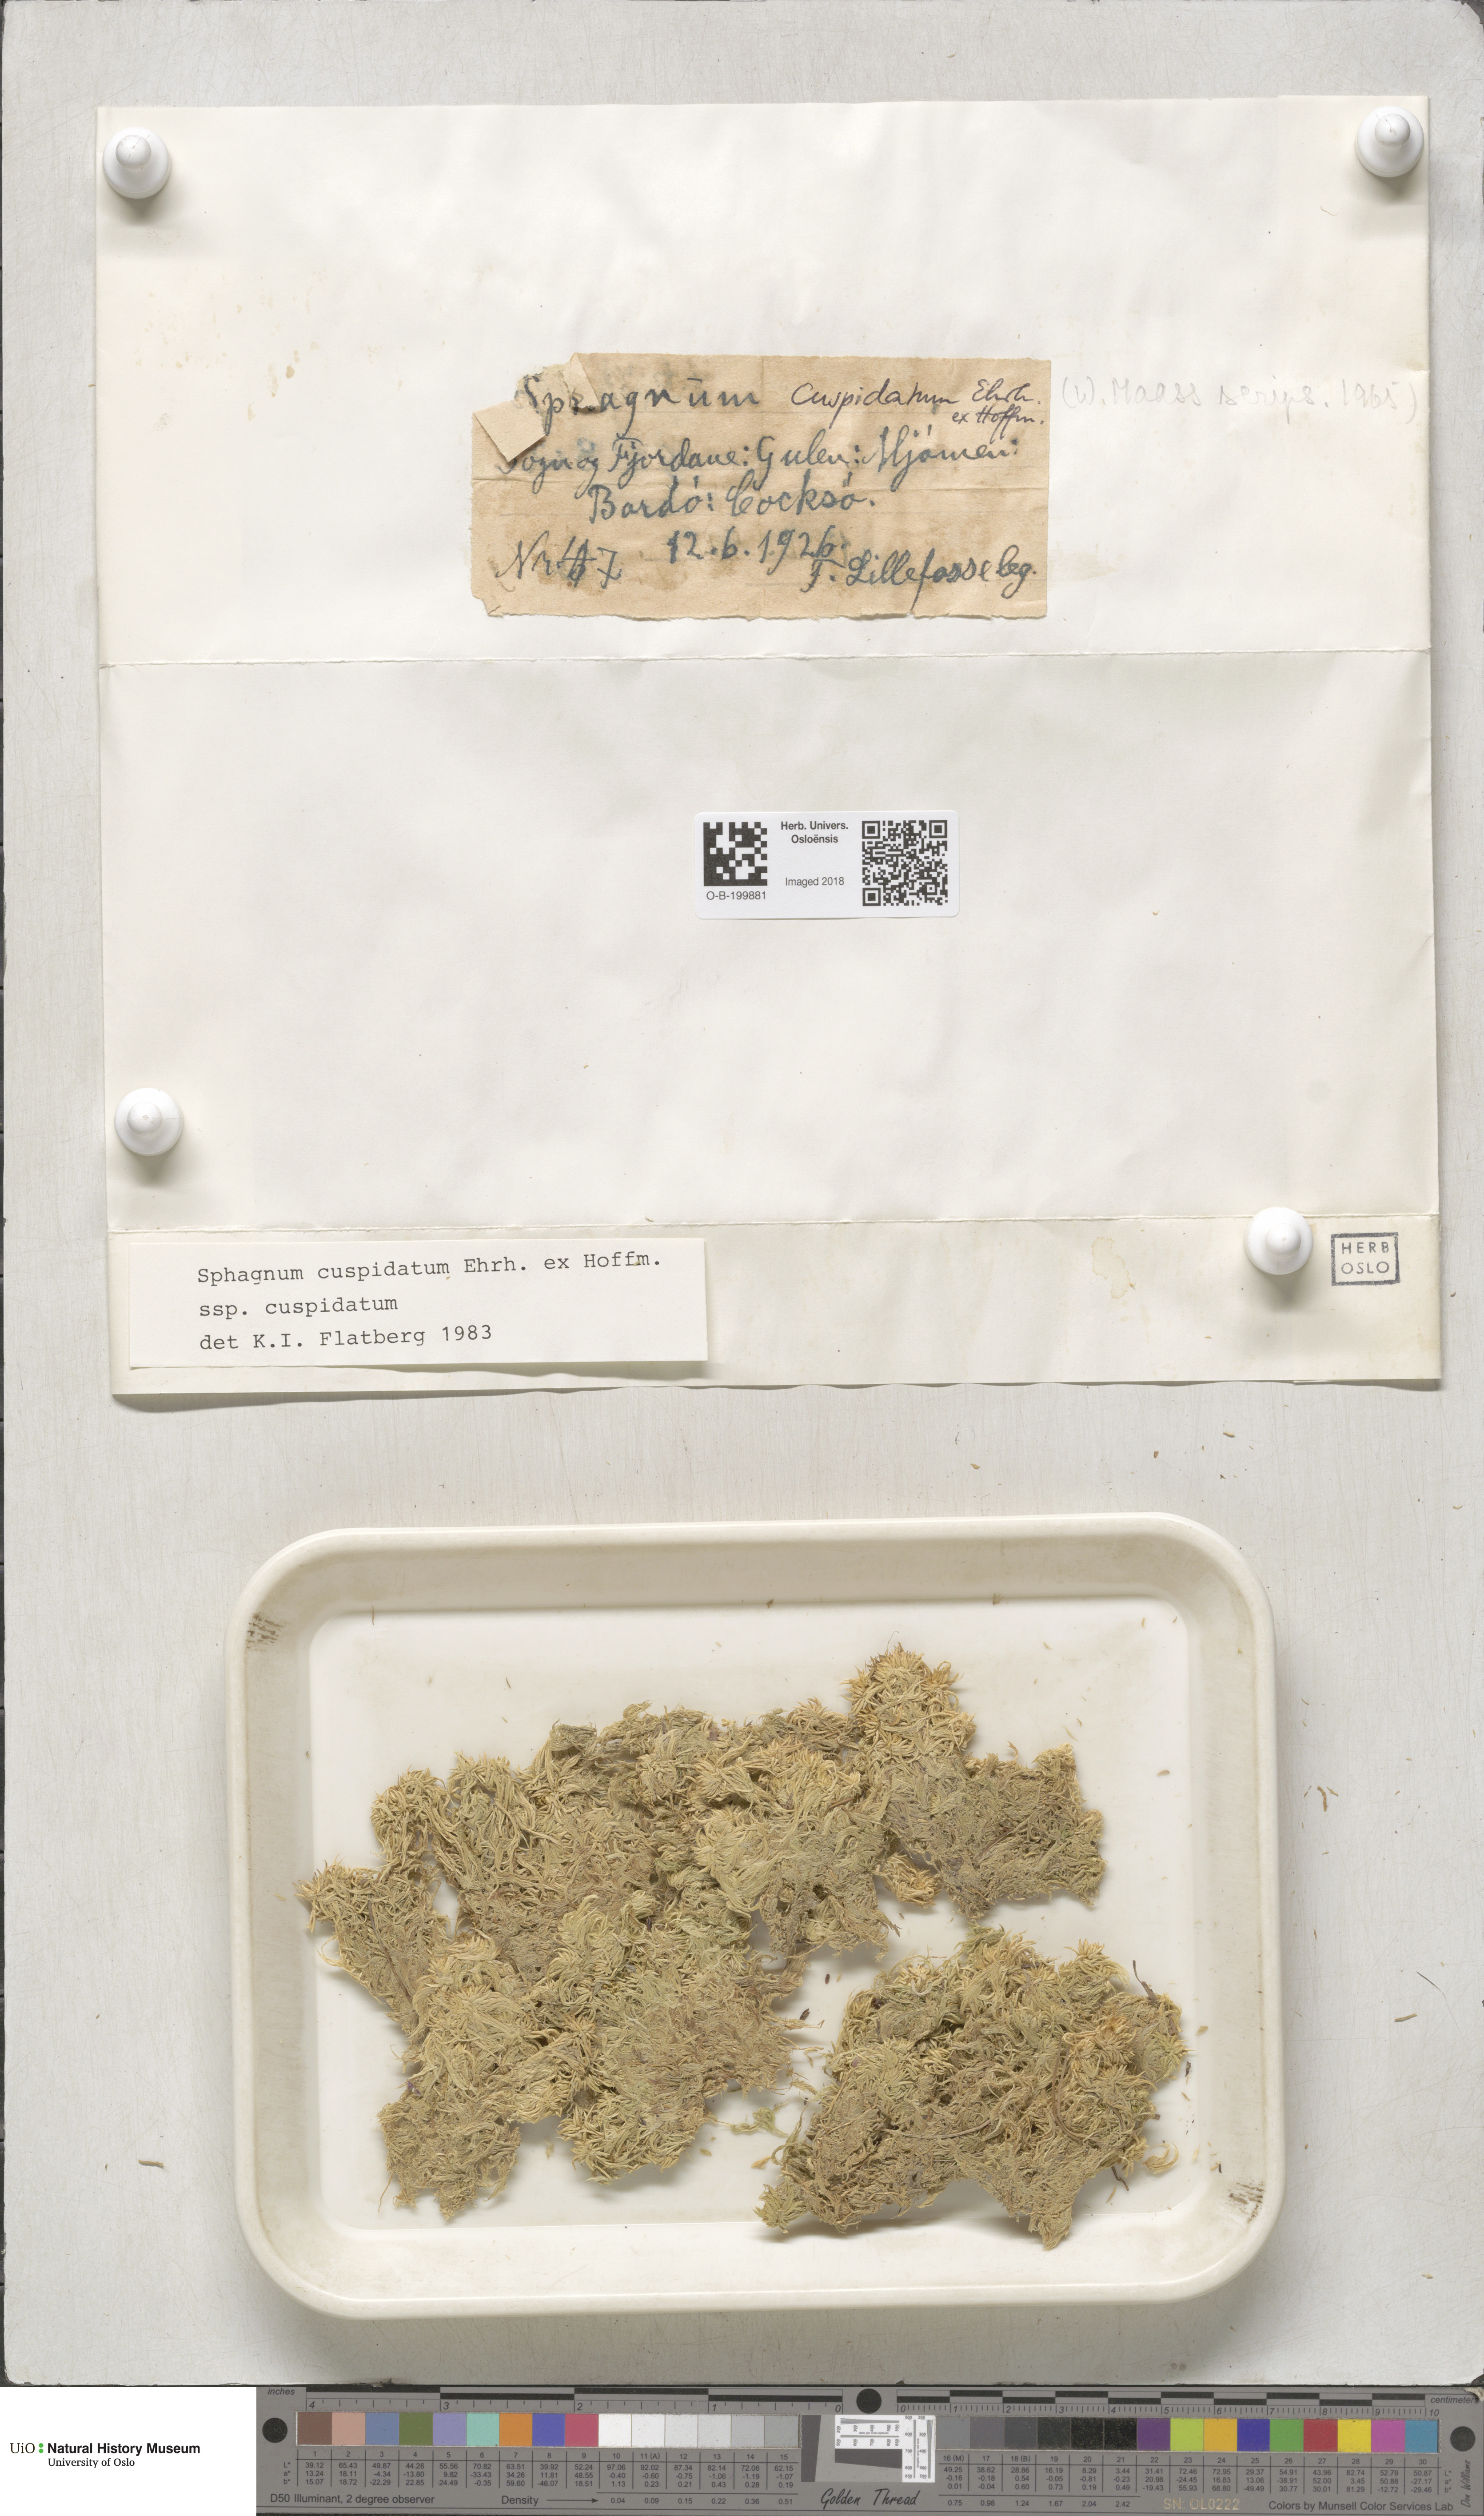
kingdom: Plantae
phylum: Bryophyta
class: Sphagnopsida
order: Sphagnales
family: Sphagnaceae
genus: Sphagnum
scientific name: Sphagnum cuspidatum
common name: Feathery peat moss
